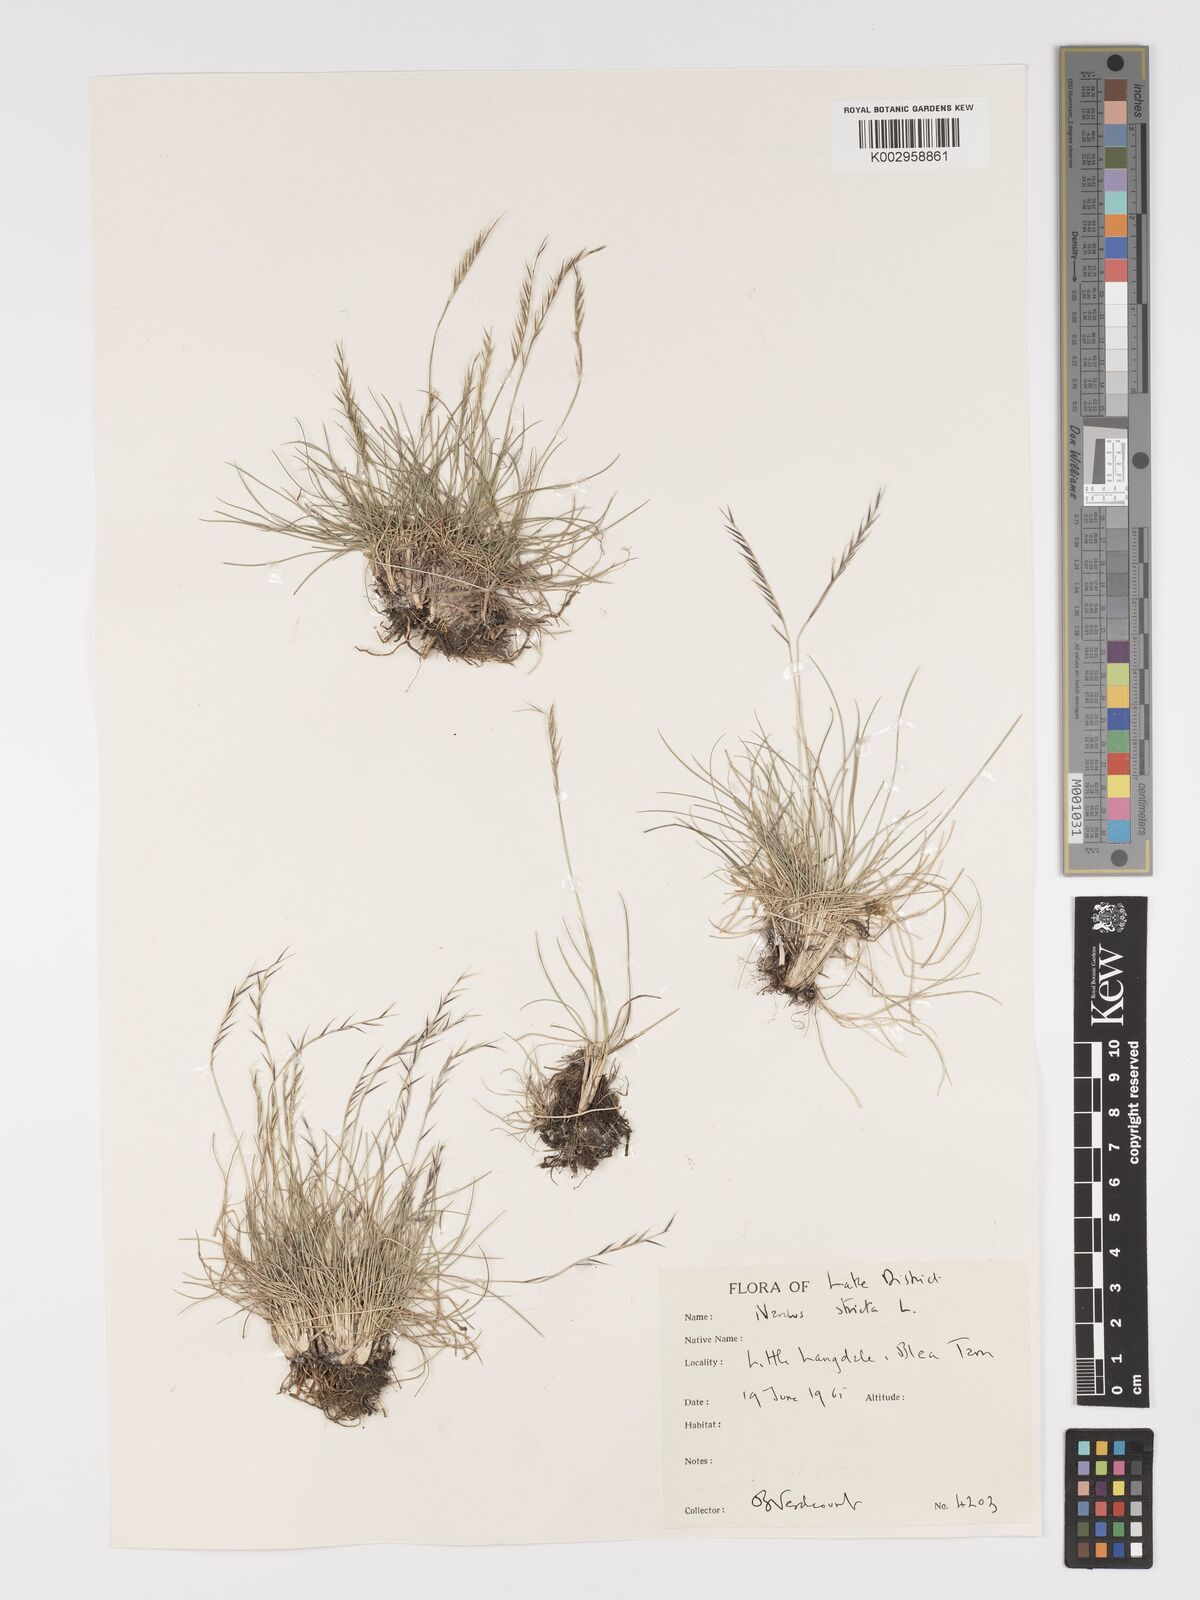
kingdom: Plantae
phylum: Tracheophyta
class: Liliopsida
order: Poales
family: Poaceae
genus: Nardus
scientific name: Nardus stricta
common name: Mat-grass
